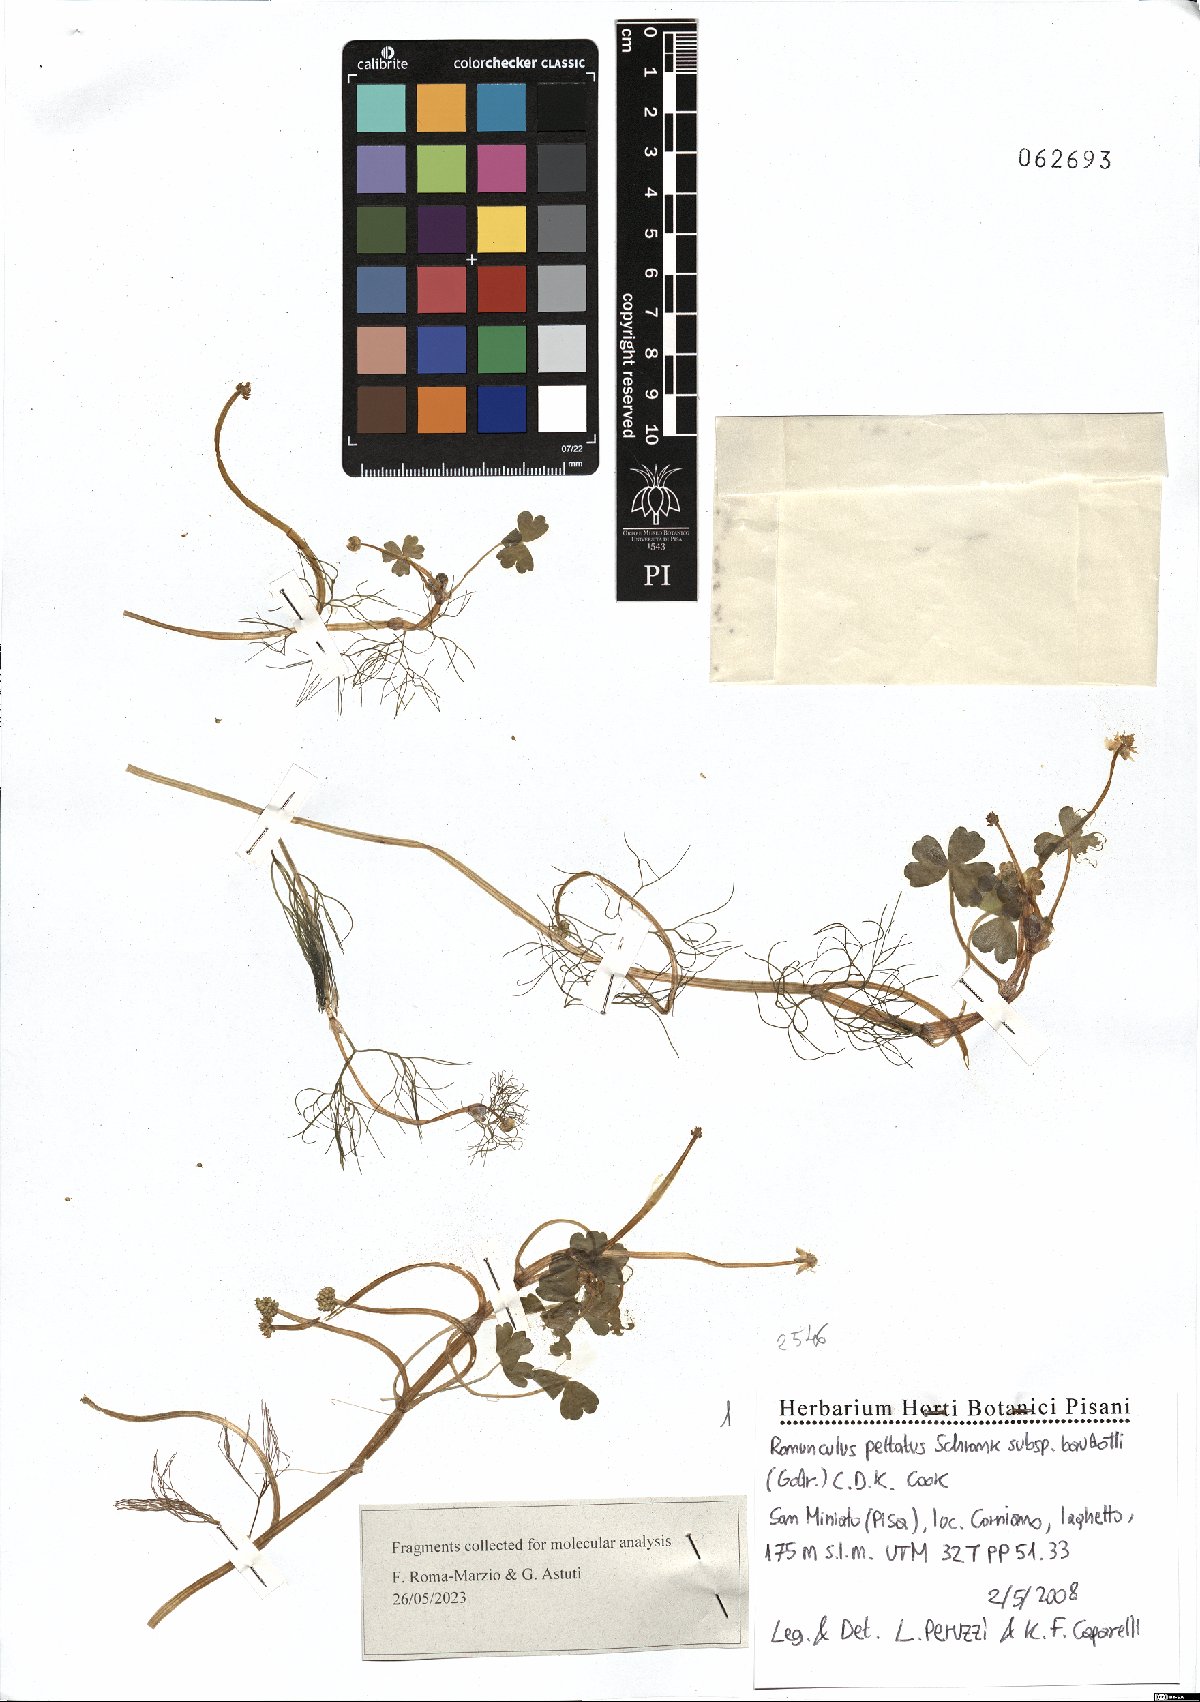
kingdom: Plantae
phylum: Tracheophyta
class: Magnoliopsida
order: Ranunculales
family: Ranunculaceae
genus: Ranunculus
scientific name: Ranunculus peltatus
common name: Pond water-crowfoot
